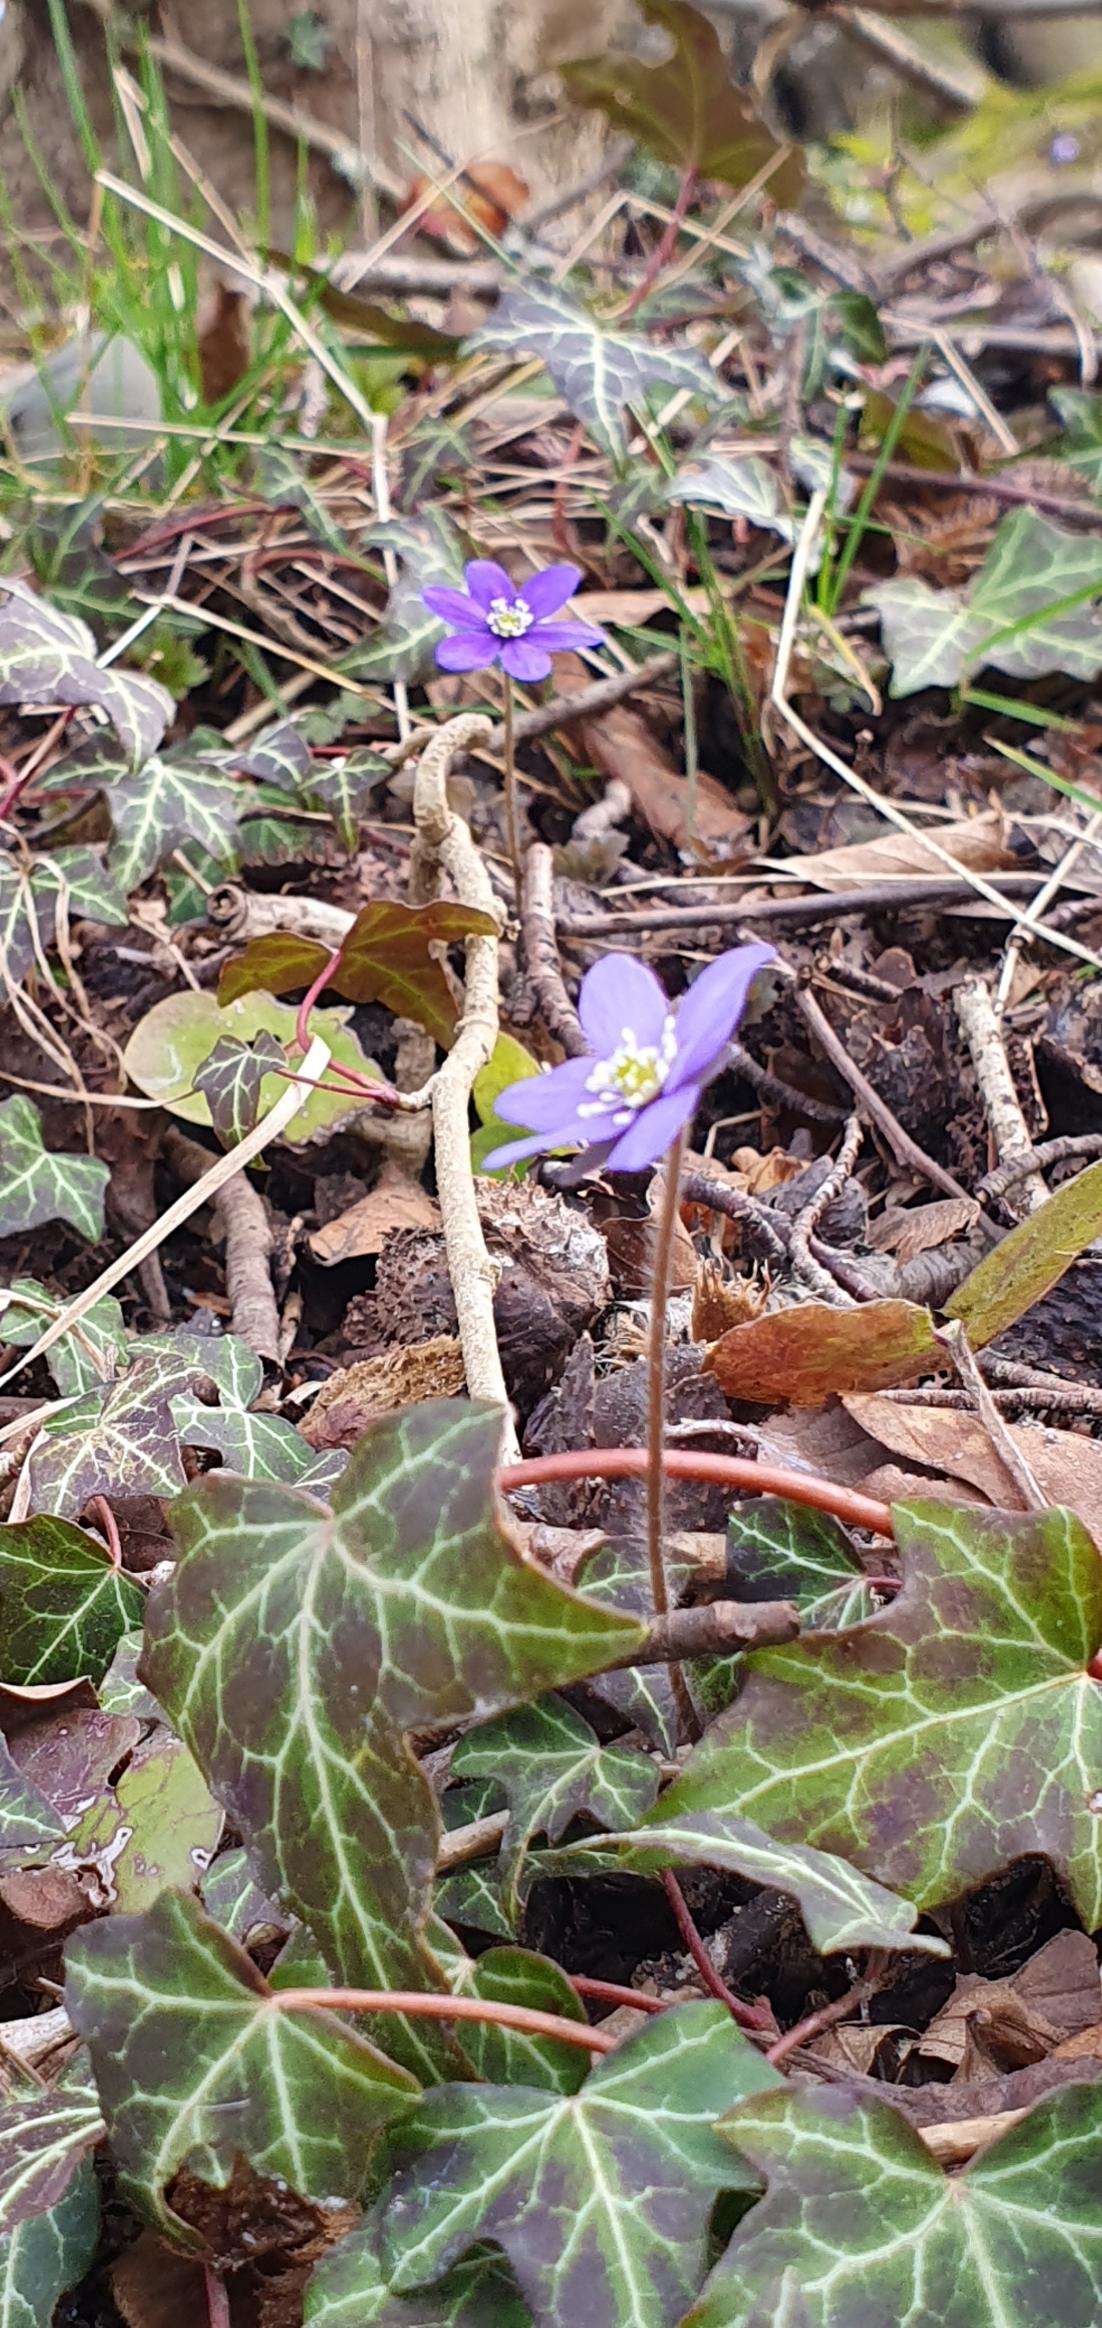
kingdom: Plantae
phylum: Tracheophyta
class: Magnoliopsida
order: Ranunculales
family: Ranunculaceae
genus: Hepatica
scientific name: Hepatica nobilis
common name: Blå anemone
